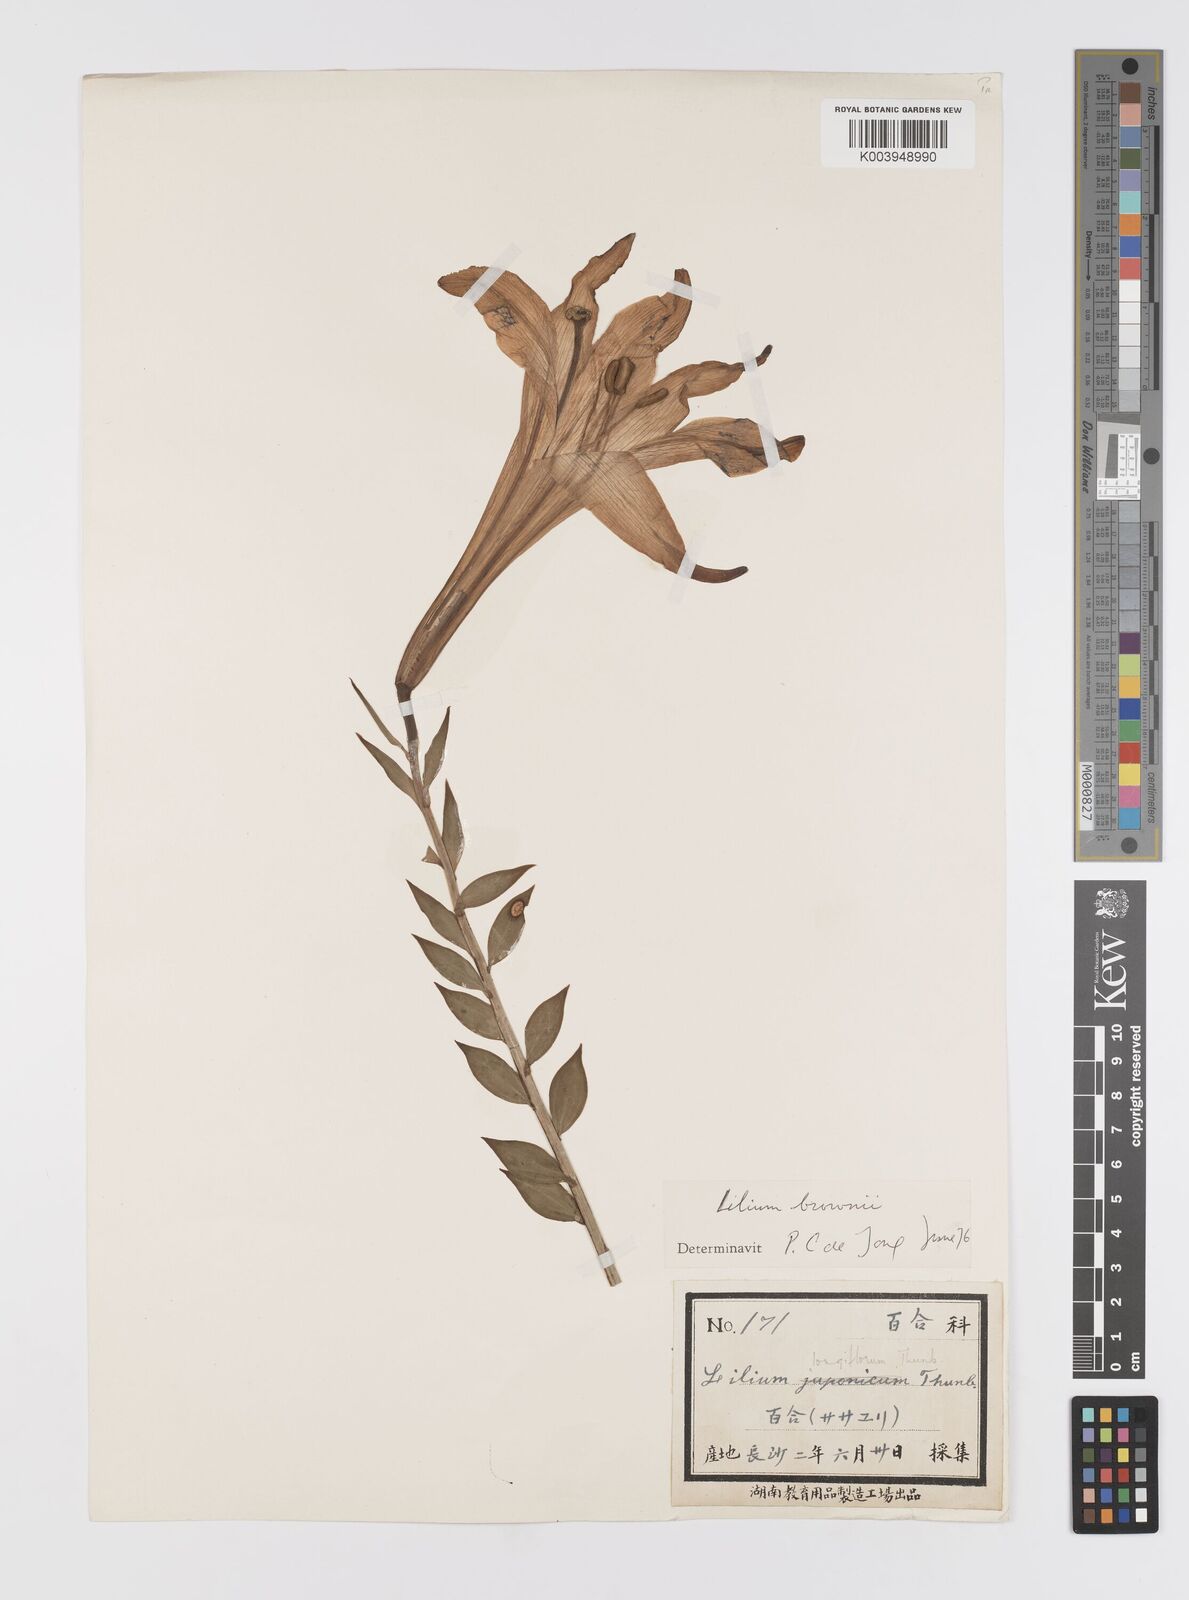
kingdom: Plantae
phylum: Tracheophyta
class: Liliopsida
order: Liliales
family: Liliaceae
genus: Lilium
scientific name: Lilium brownii
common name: Brown's lily
